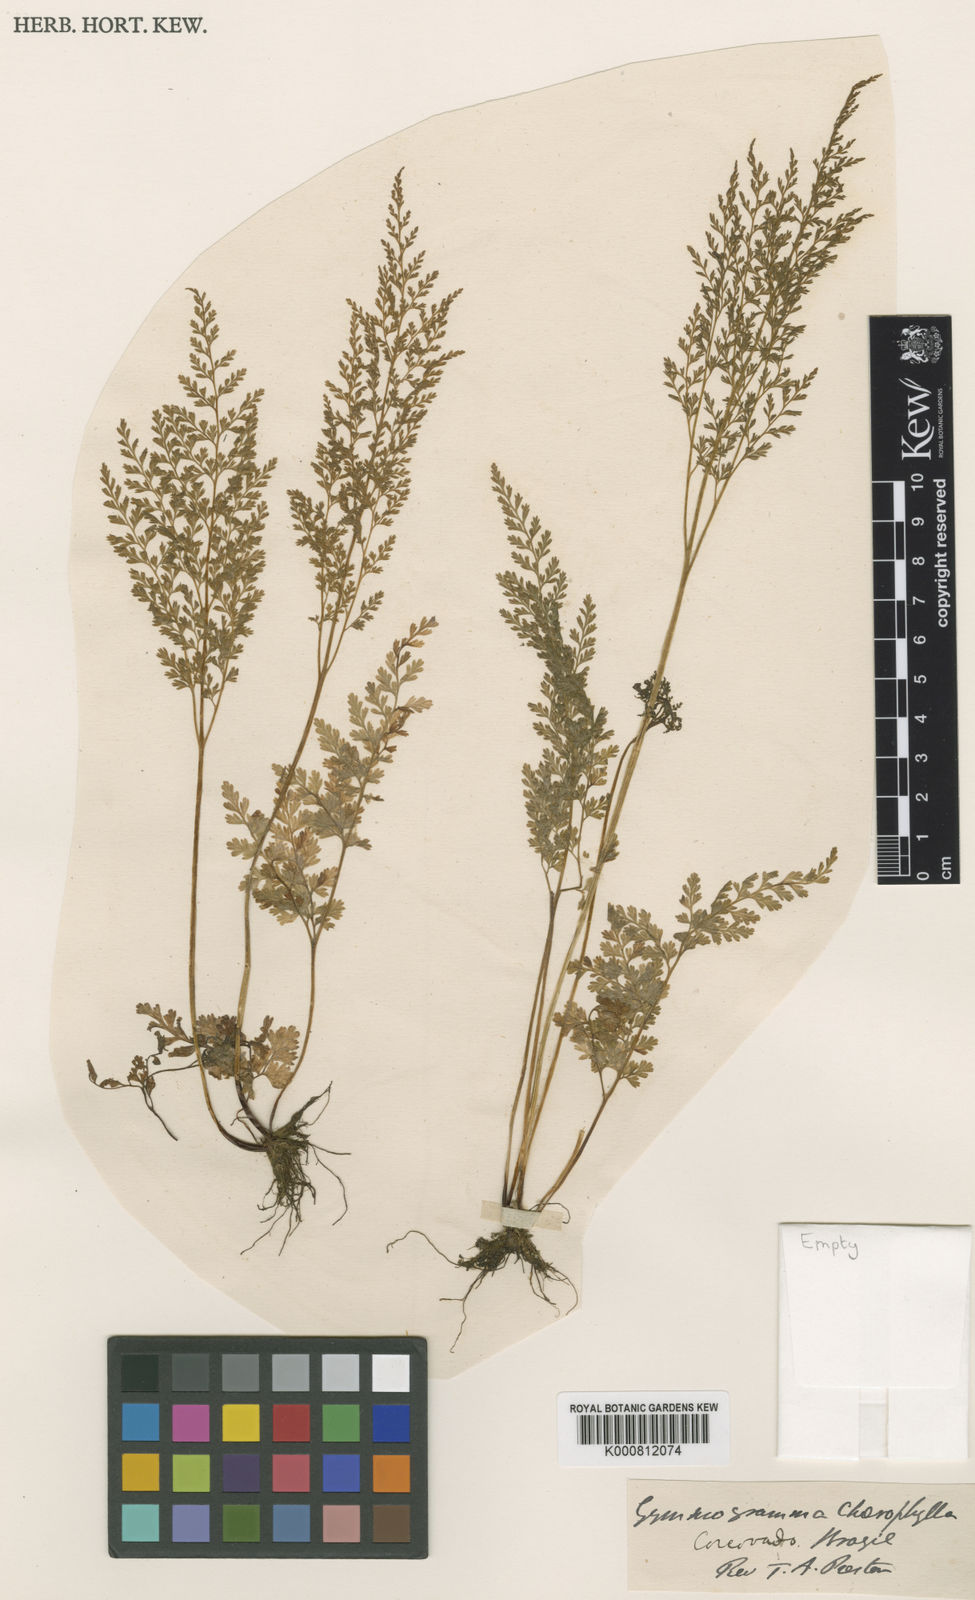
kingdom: Plantae
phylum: Tracheophyta
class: Polypodiopsida
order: Polypodiales
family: Pteridaceae
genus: Gastoniella
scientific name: Gastoniella chaerophylla
